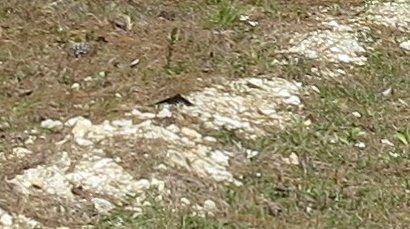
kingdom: Animalia
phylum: Arthropoda
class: Insecta
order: Lepidoptera
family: Papilionidae
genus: Battus
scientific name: Battus philenor
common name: Pipevine Swallowtail
